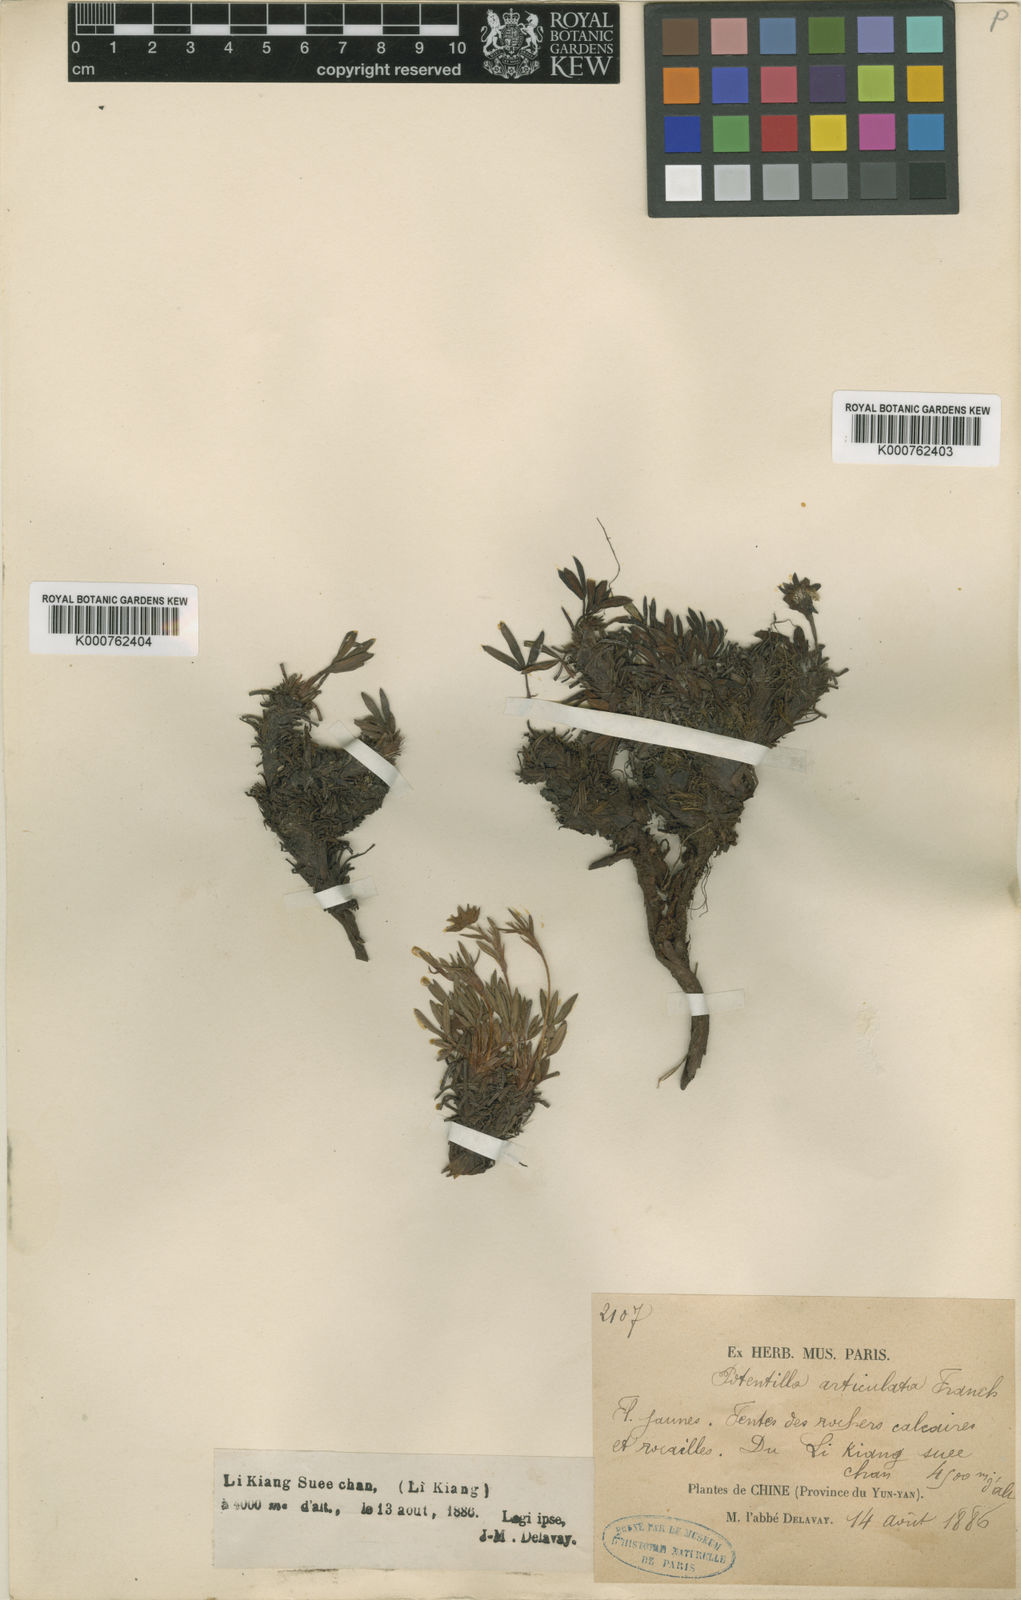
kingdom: Plantae
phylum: Tracheophyta
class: Magnoliopsida
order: Rosales
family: Rosaceae
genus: Potentilla
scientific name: Potentilla articulata
